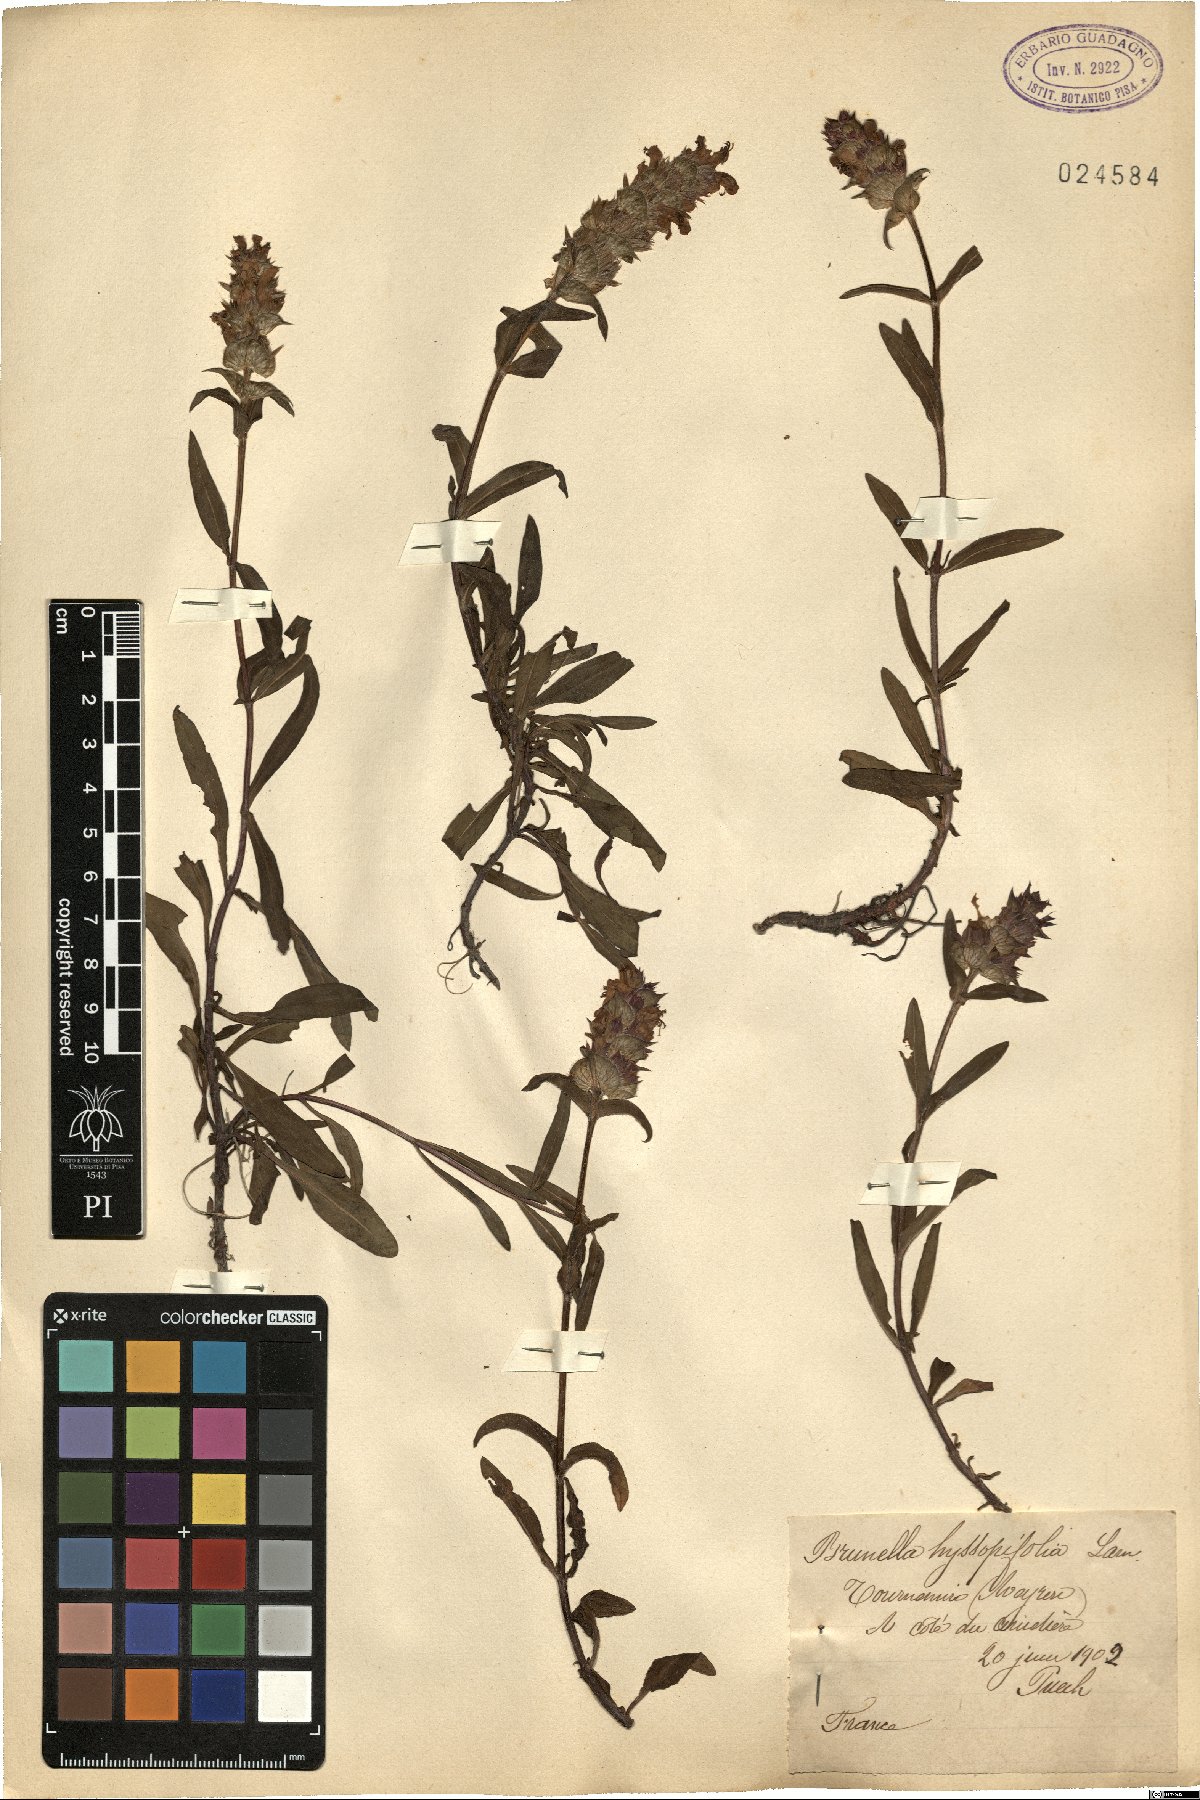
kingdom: Plantae
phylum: Tracheophyta
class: Magnoliopsida
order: Lamiales
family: Lamiaceae
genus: Prunella
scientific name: Prunella hyssopifolia
